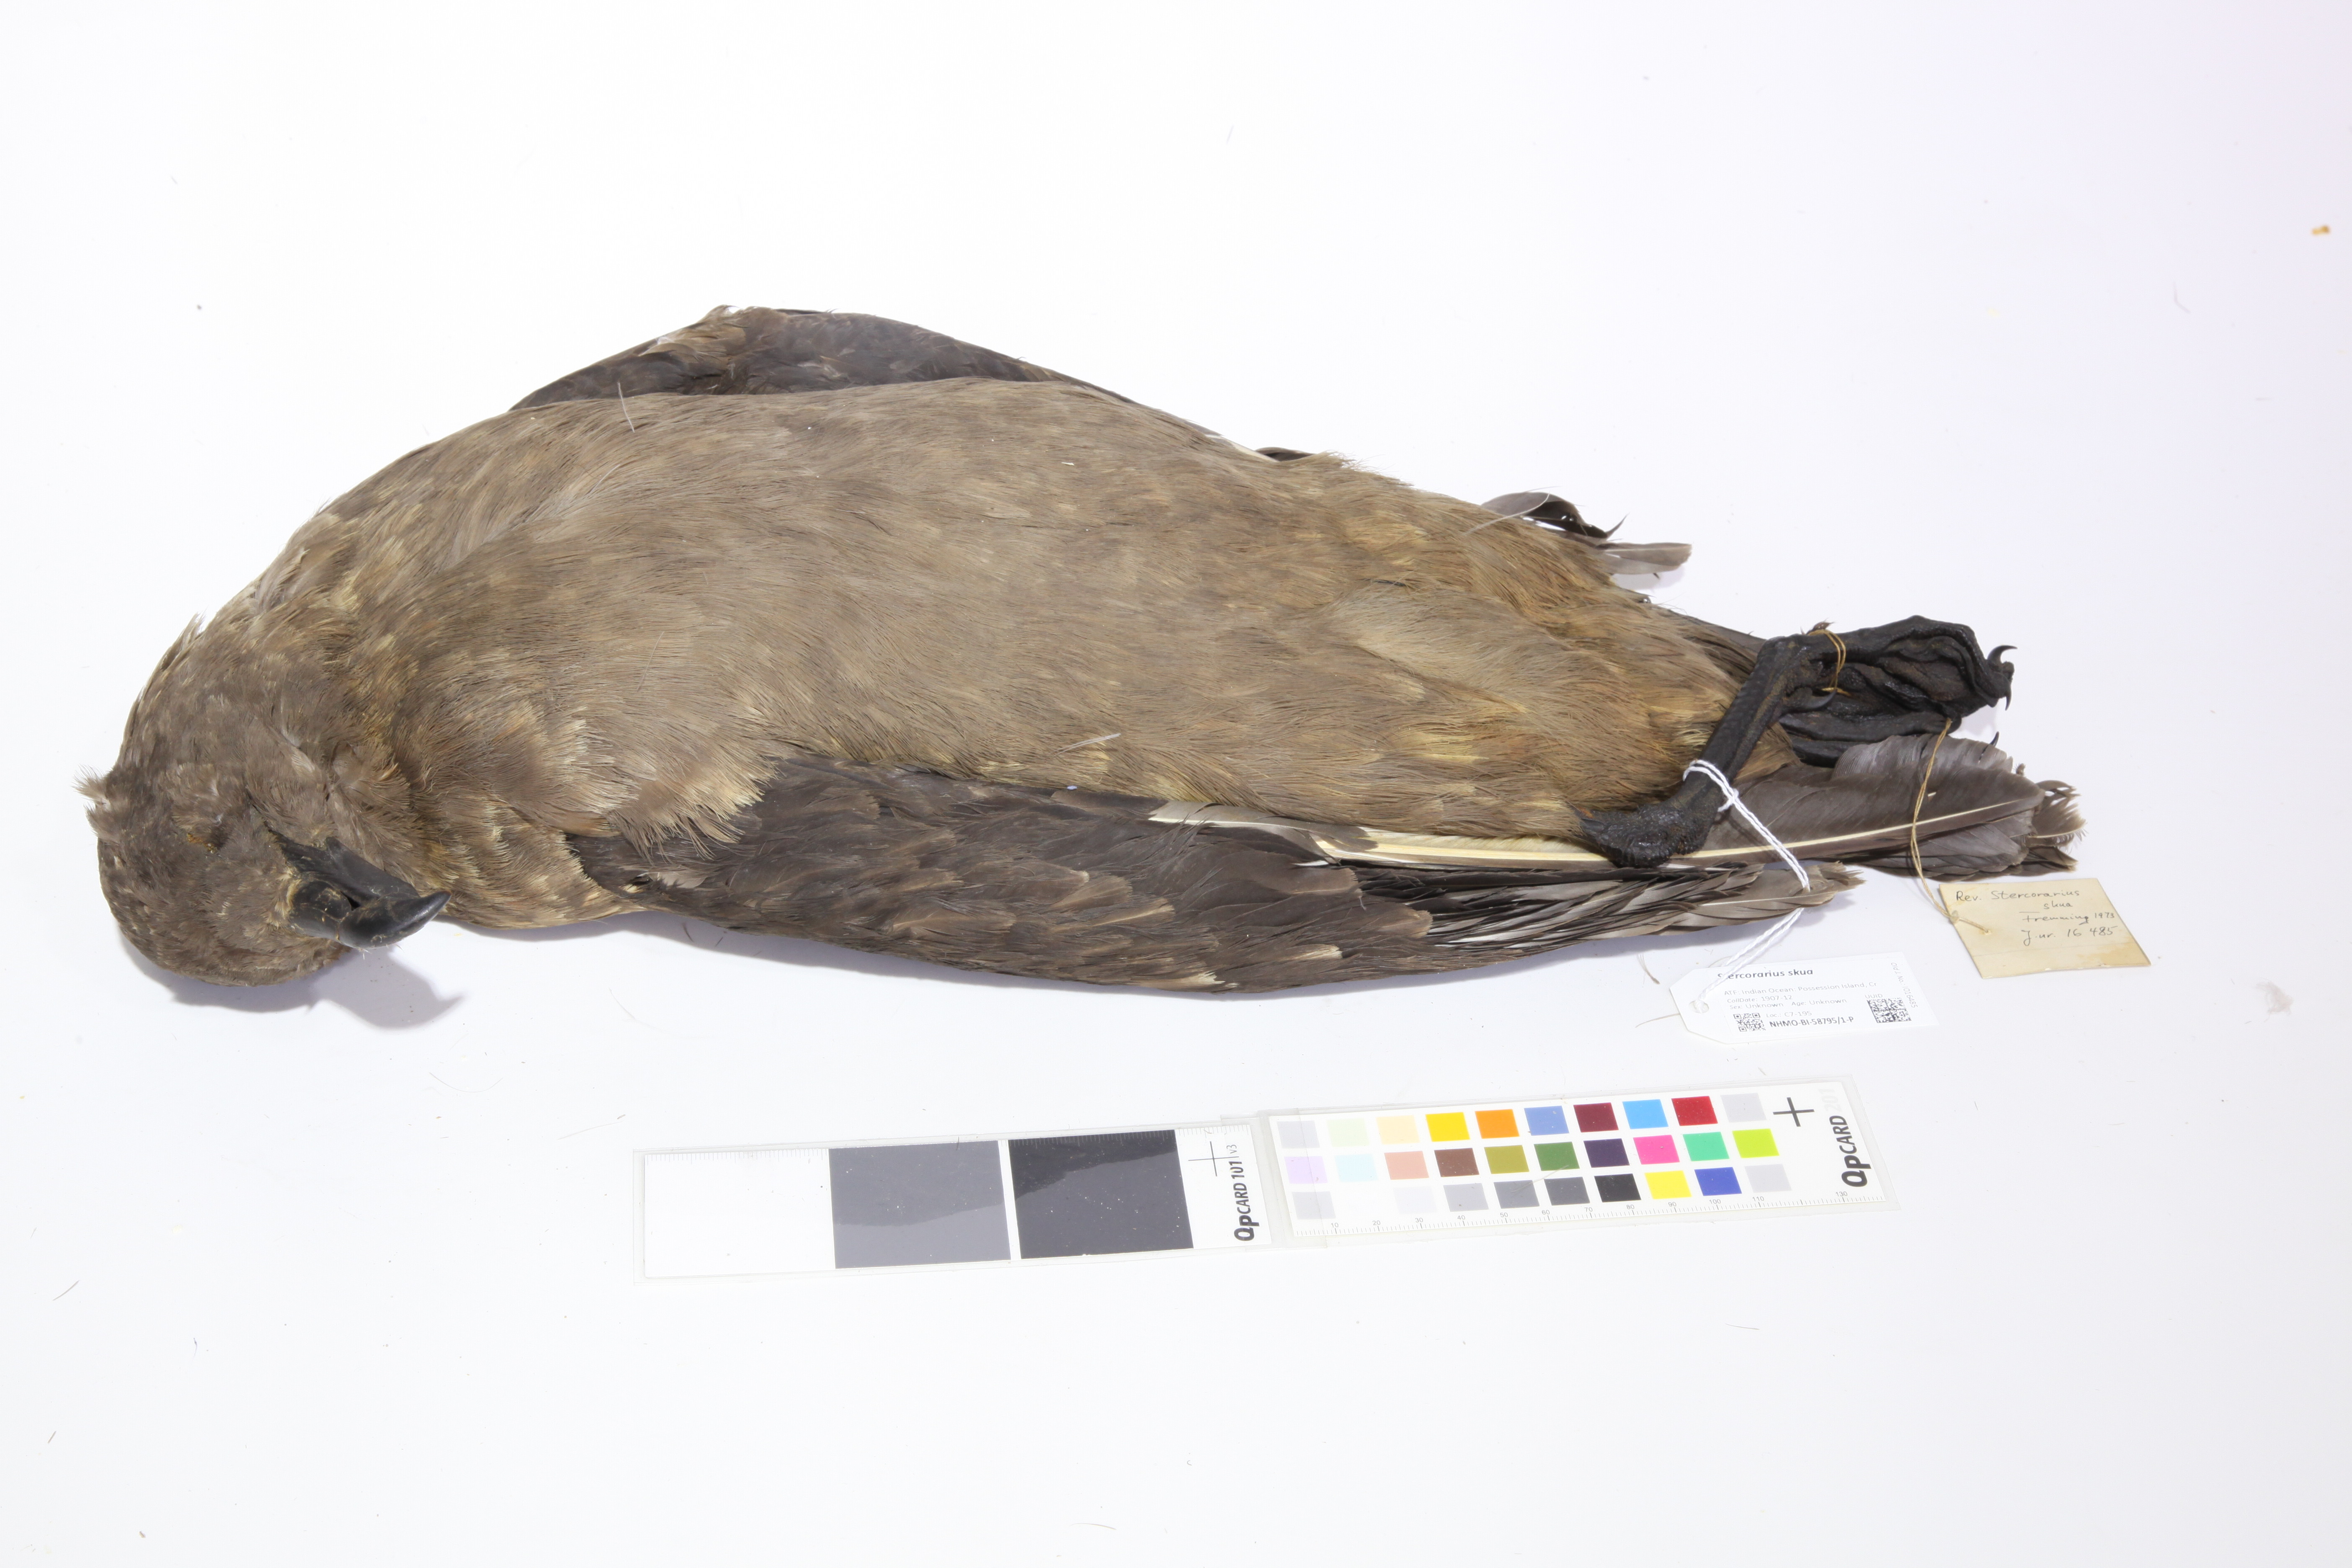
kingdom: Animalia
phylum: Chordata
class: Aves
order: Charadriiformes
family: Stercorariidae
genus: Stercorarius
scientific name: Stercorarius antarcticus
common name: Brown skua
